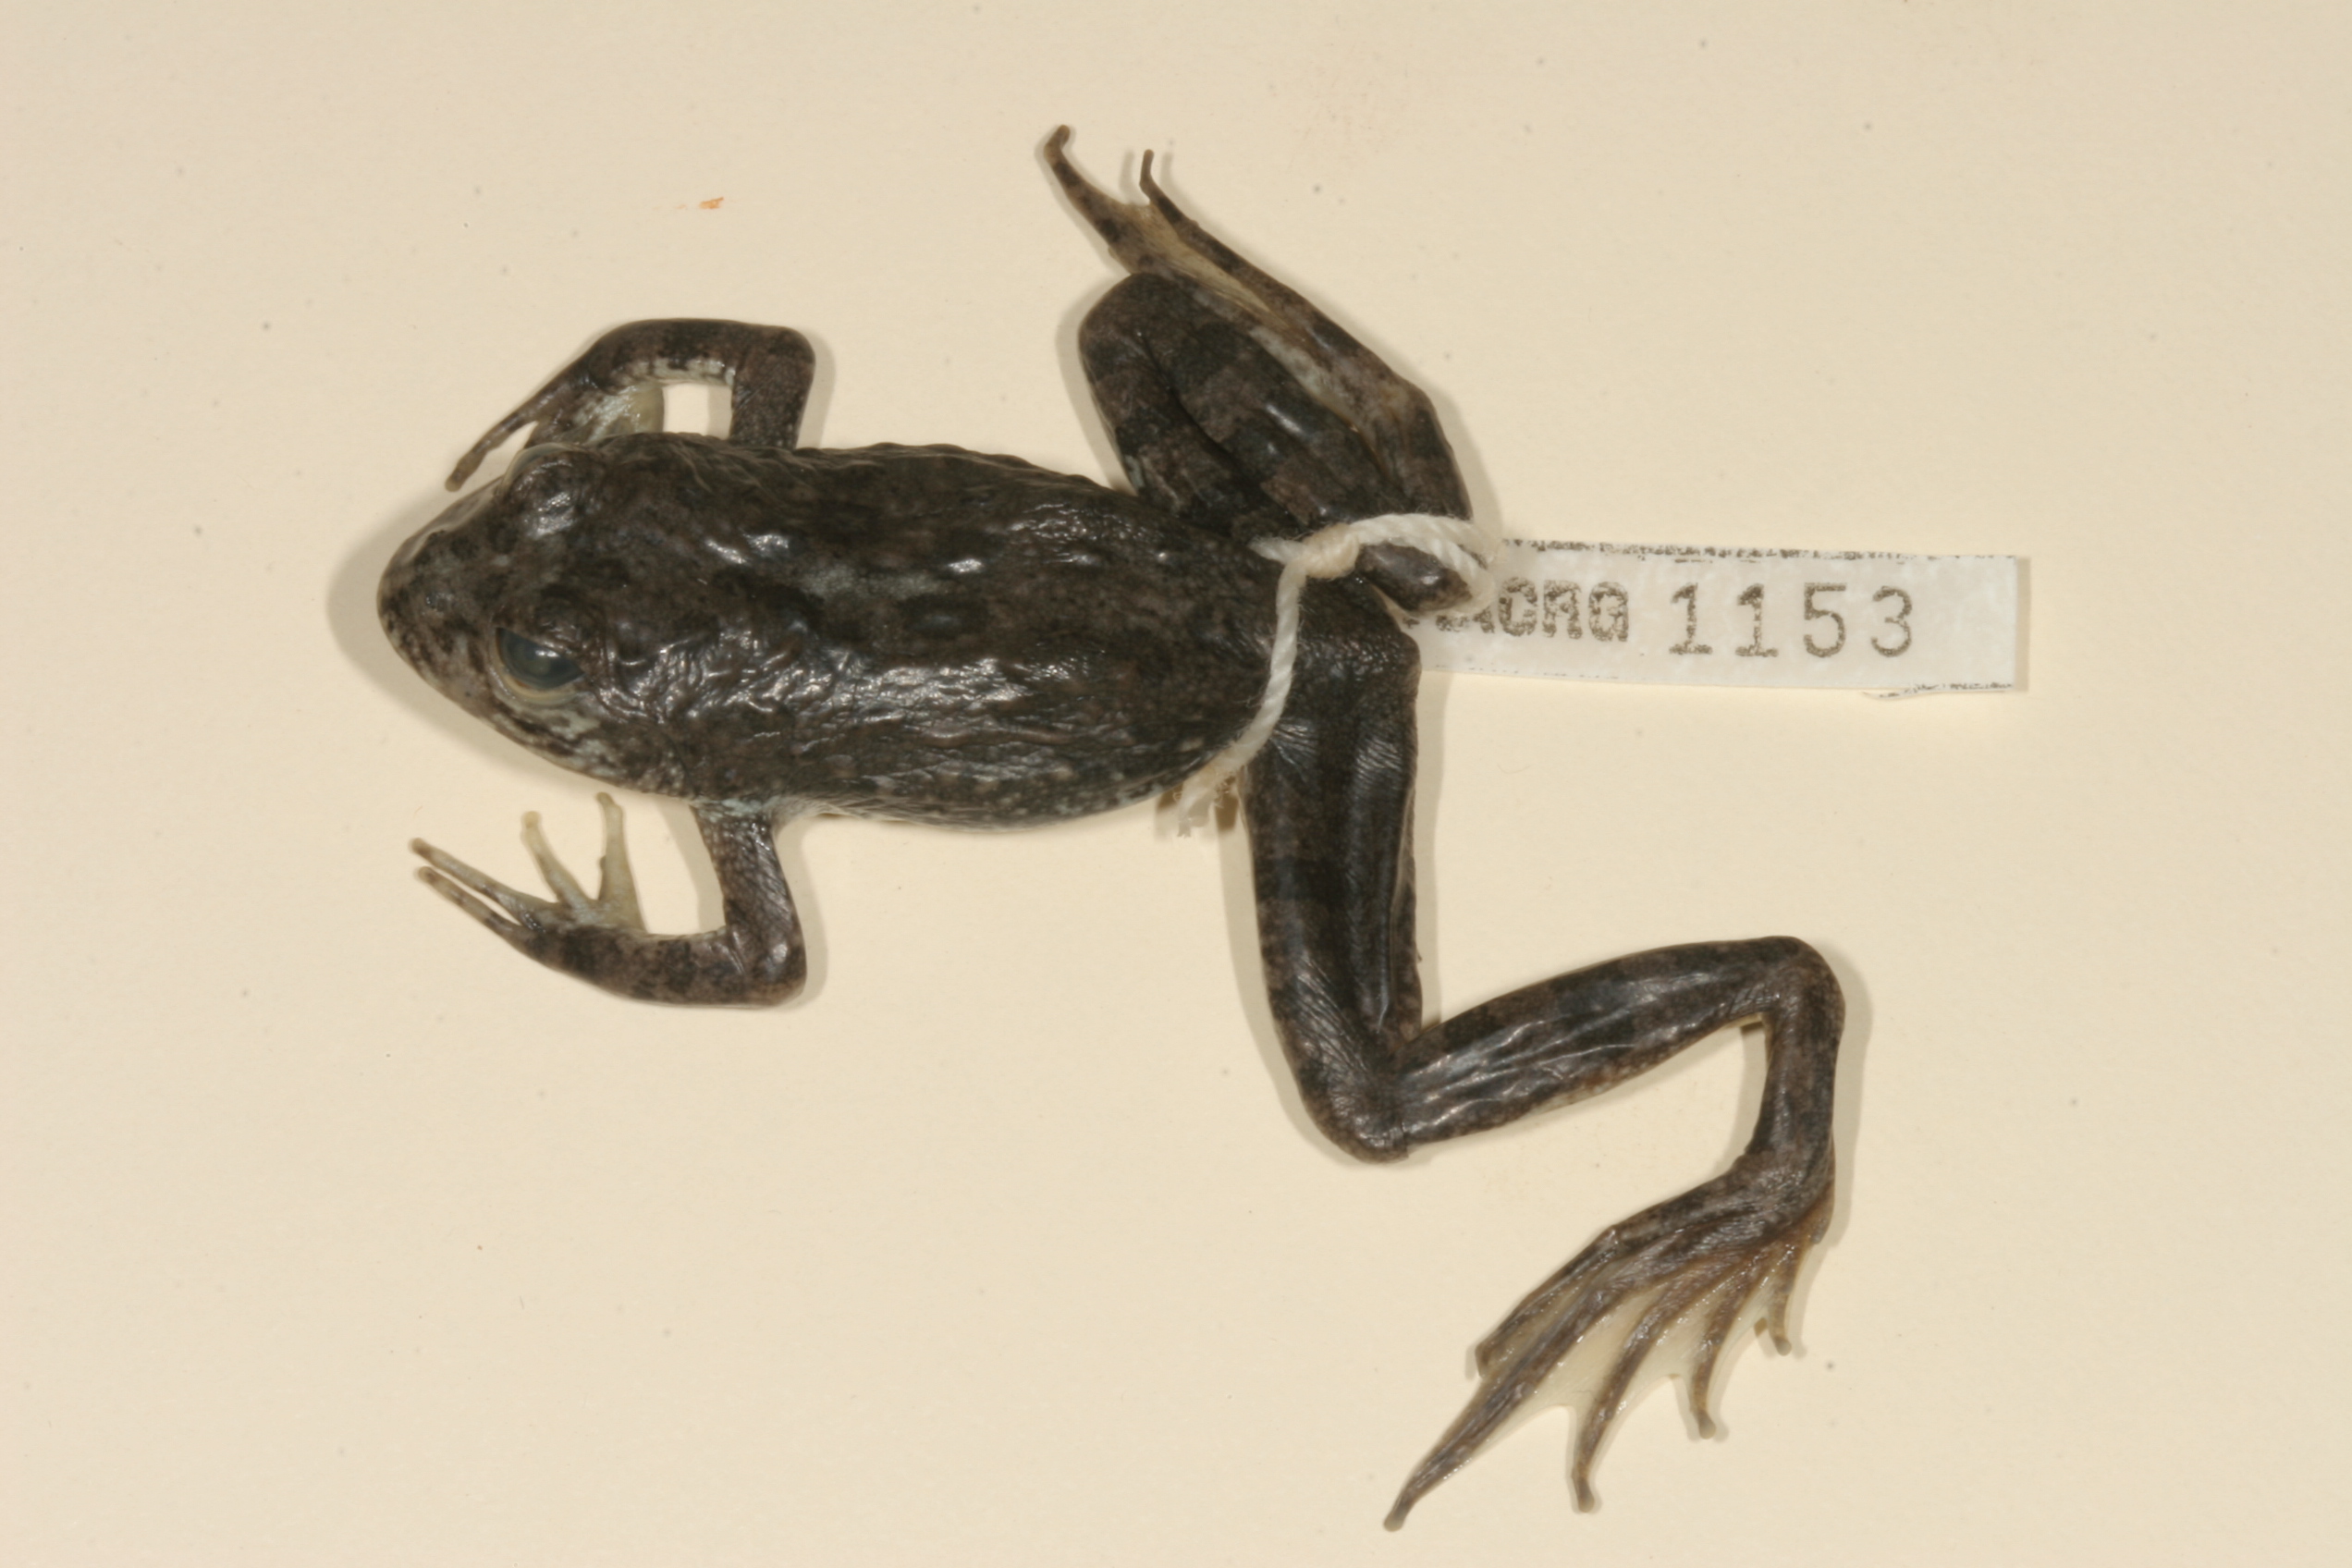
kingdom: Animalia
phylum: Chordata
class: Amphibia
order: Anura
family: Pyxicephalidae
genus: Amietia
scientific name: Amietia vertebralis
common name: Drakensberg stream frog
